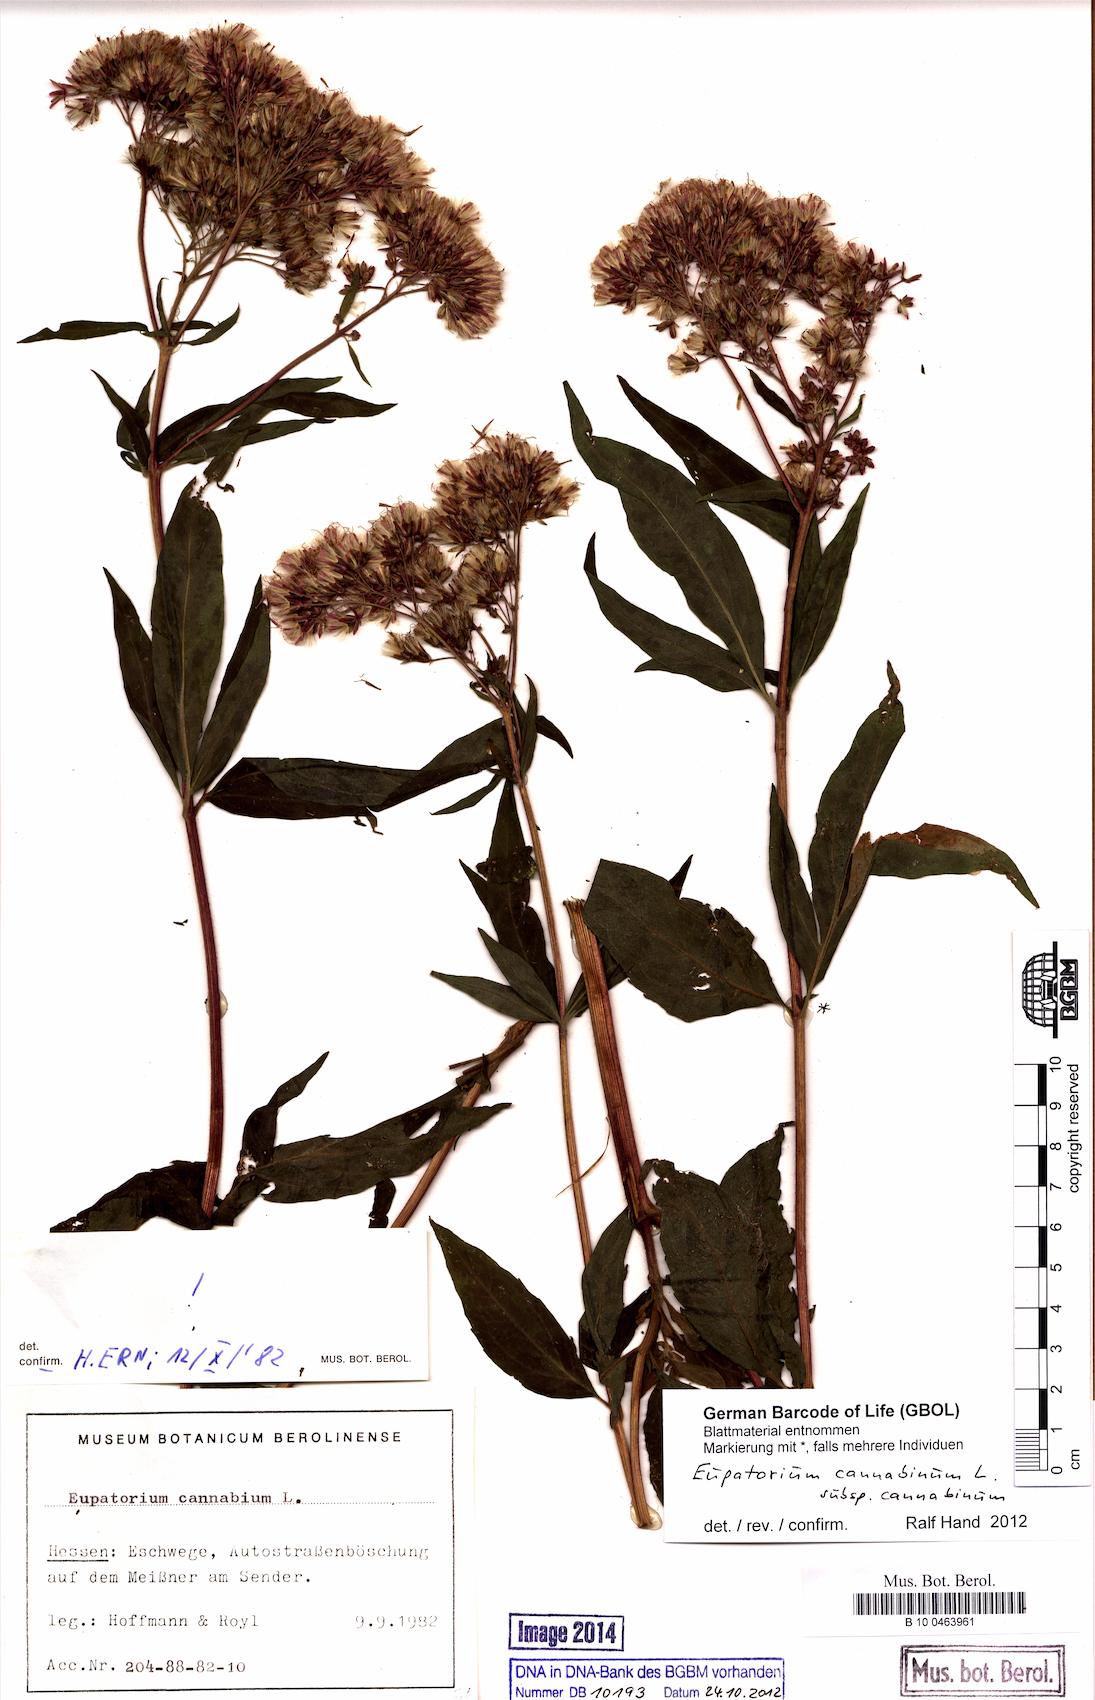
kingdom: Plantae
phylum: Tracheophyta
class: Magnoliopsida
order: Asterales
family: Asteraceae
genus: Eupatorium
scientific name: Eupatorium cannabinum
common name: Hemp-agrimony
